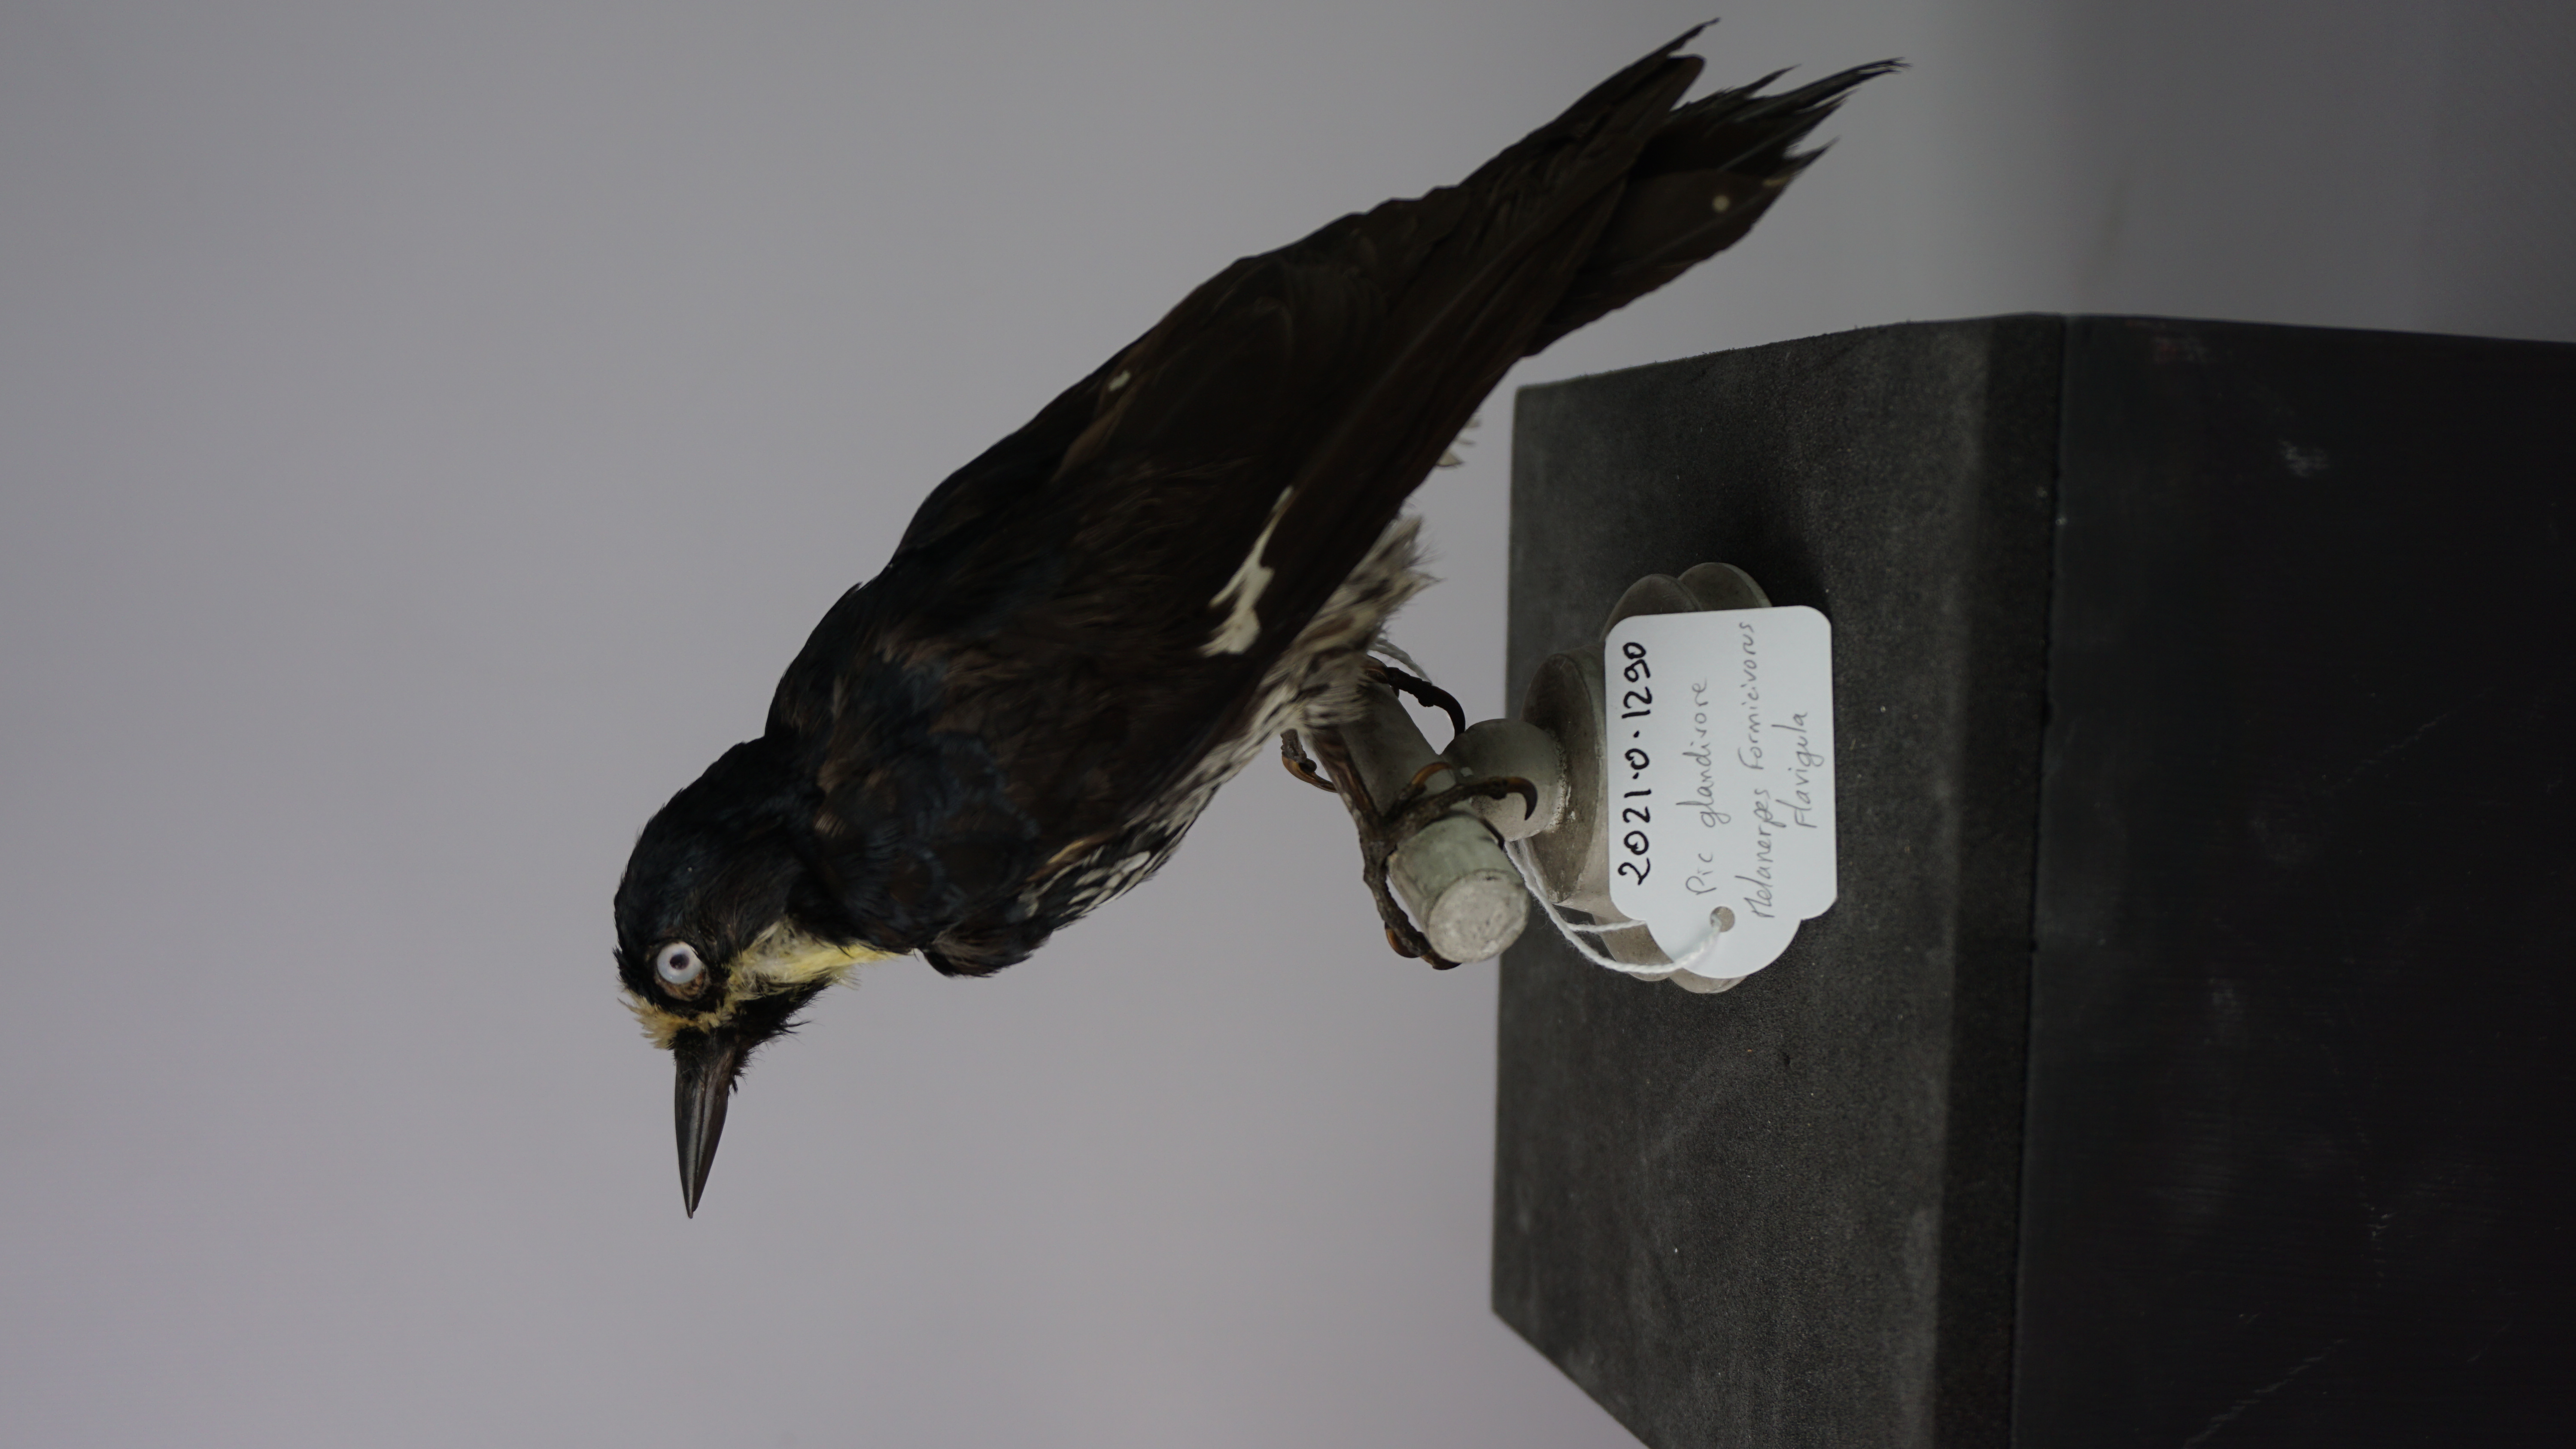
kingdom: Animalia
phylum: Chordata
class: Aves
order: Piciformes
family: Picidae
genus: Melanerpes
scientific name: Melanerpes formicivorus
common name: Acorn woodpecker
